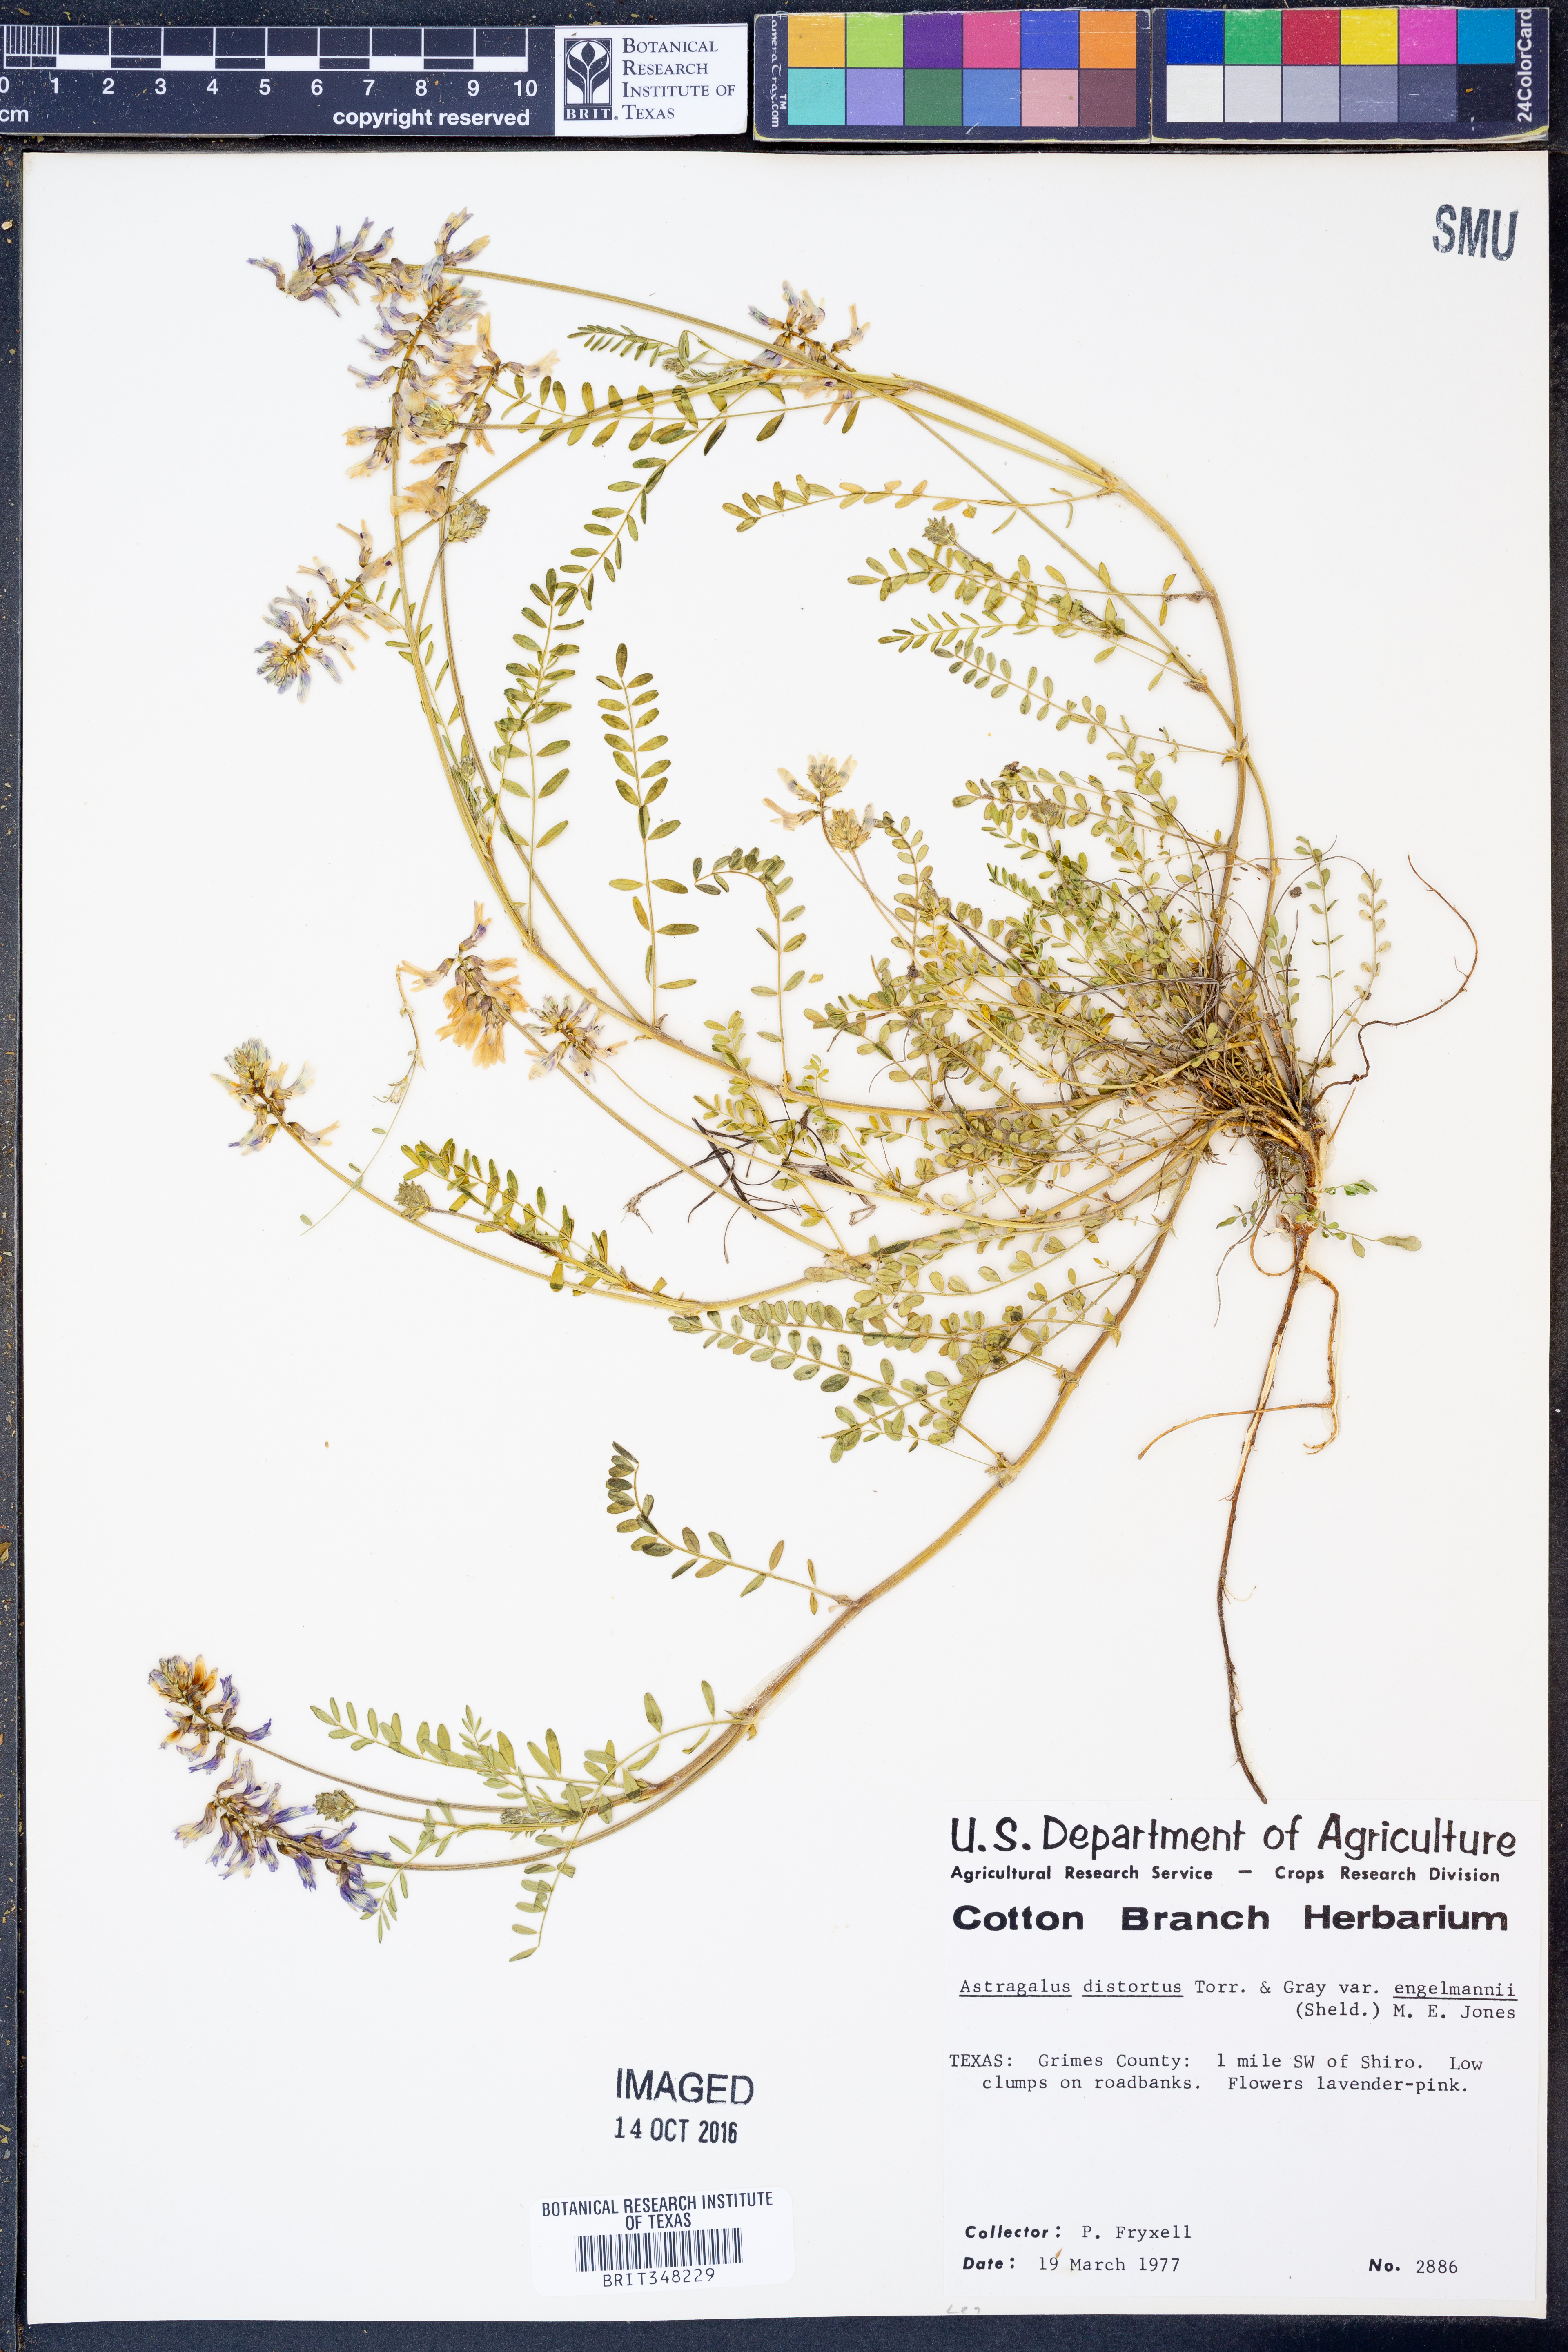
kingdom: Plantae
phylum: Tracheophyta
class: Magnoliopsida
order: Fabales
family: Fabaceae
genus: Astragalus
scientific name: Astragalus distortus
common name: Ozark milk-vetch
